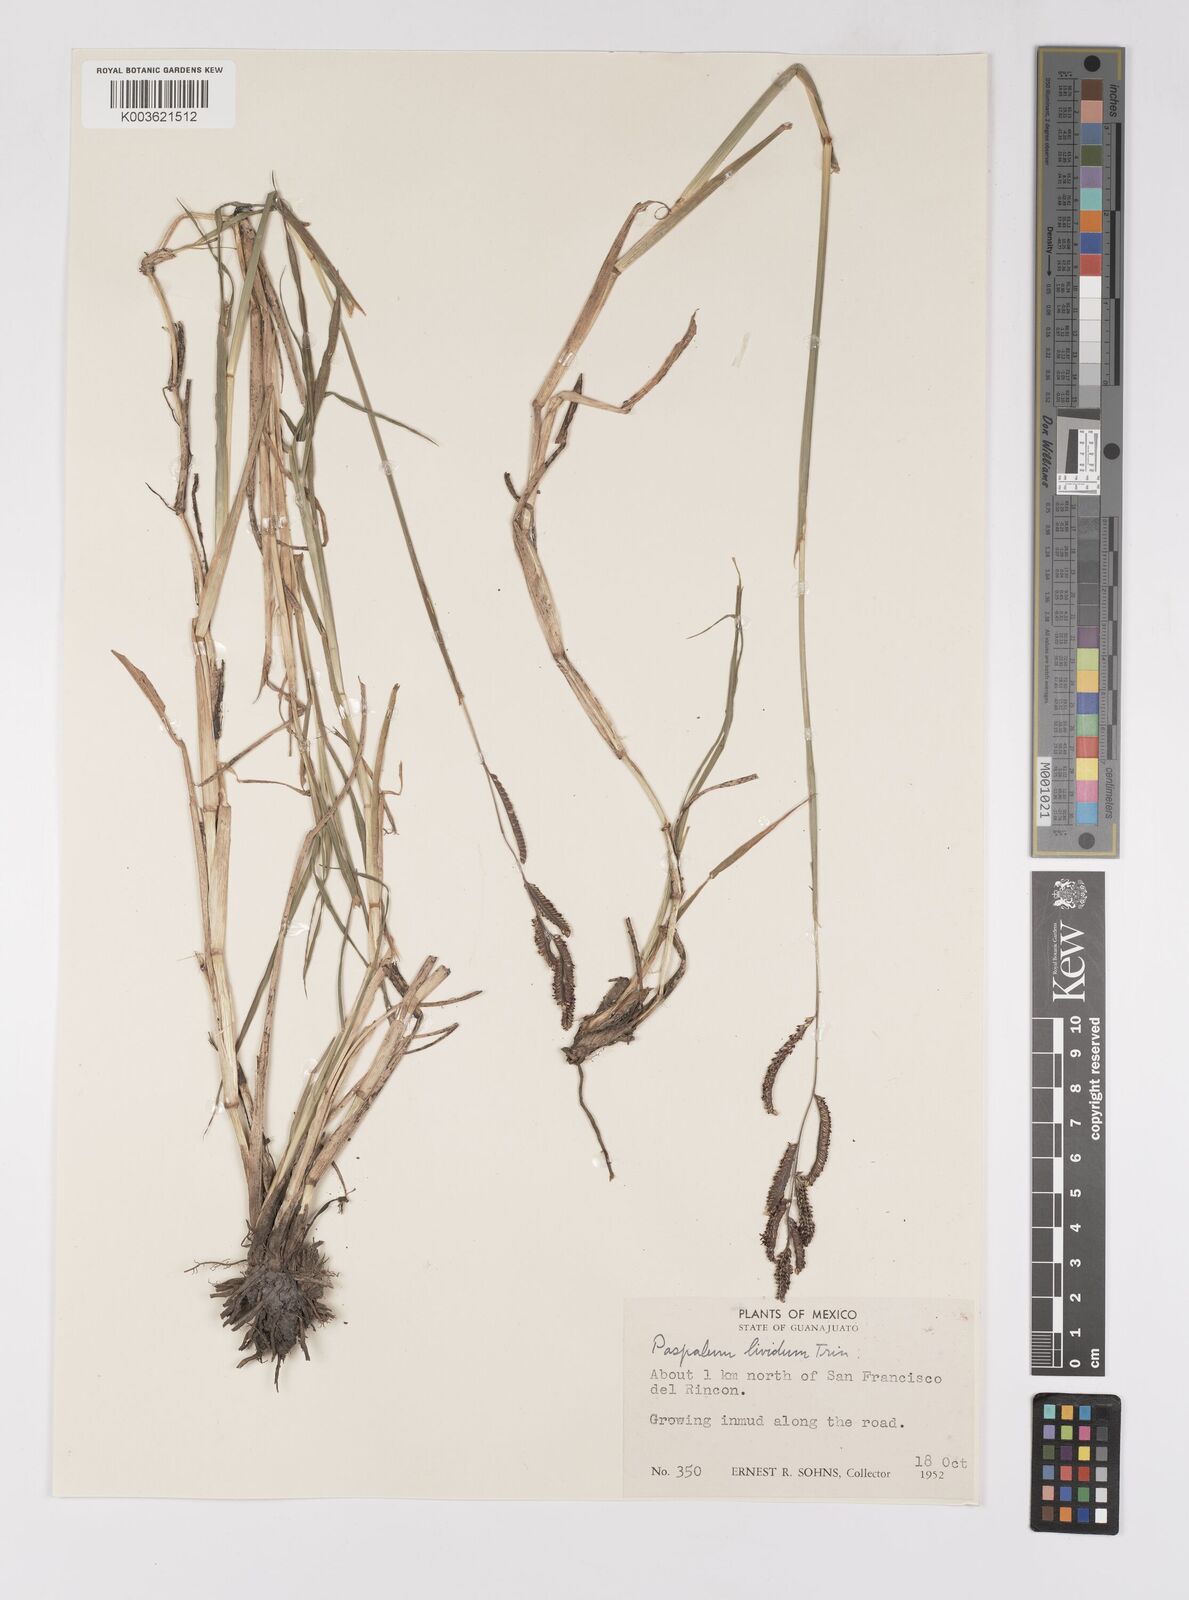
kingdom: Plantae
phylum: Tracheophyta
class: Liliopsida
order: Poales
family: Poaceae
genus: Paspalum
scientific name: Paspalum denticulatum
